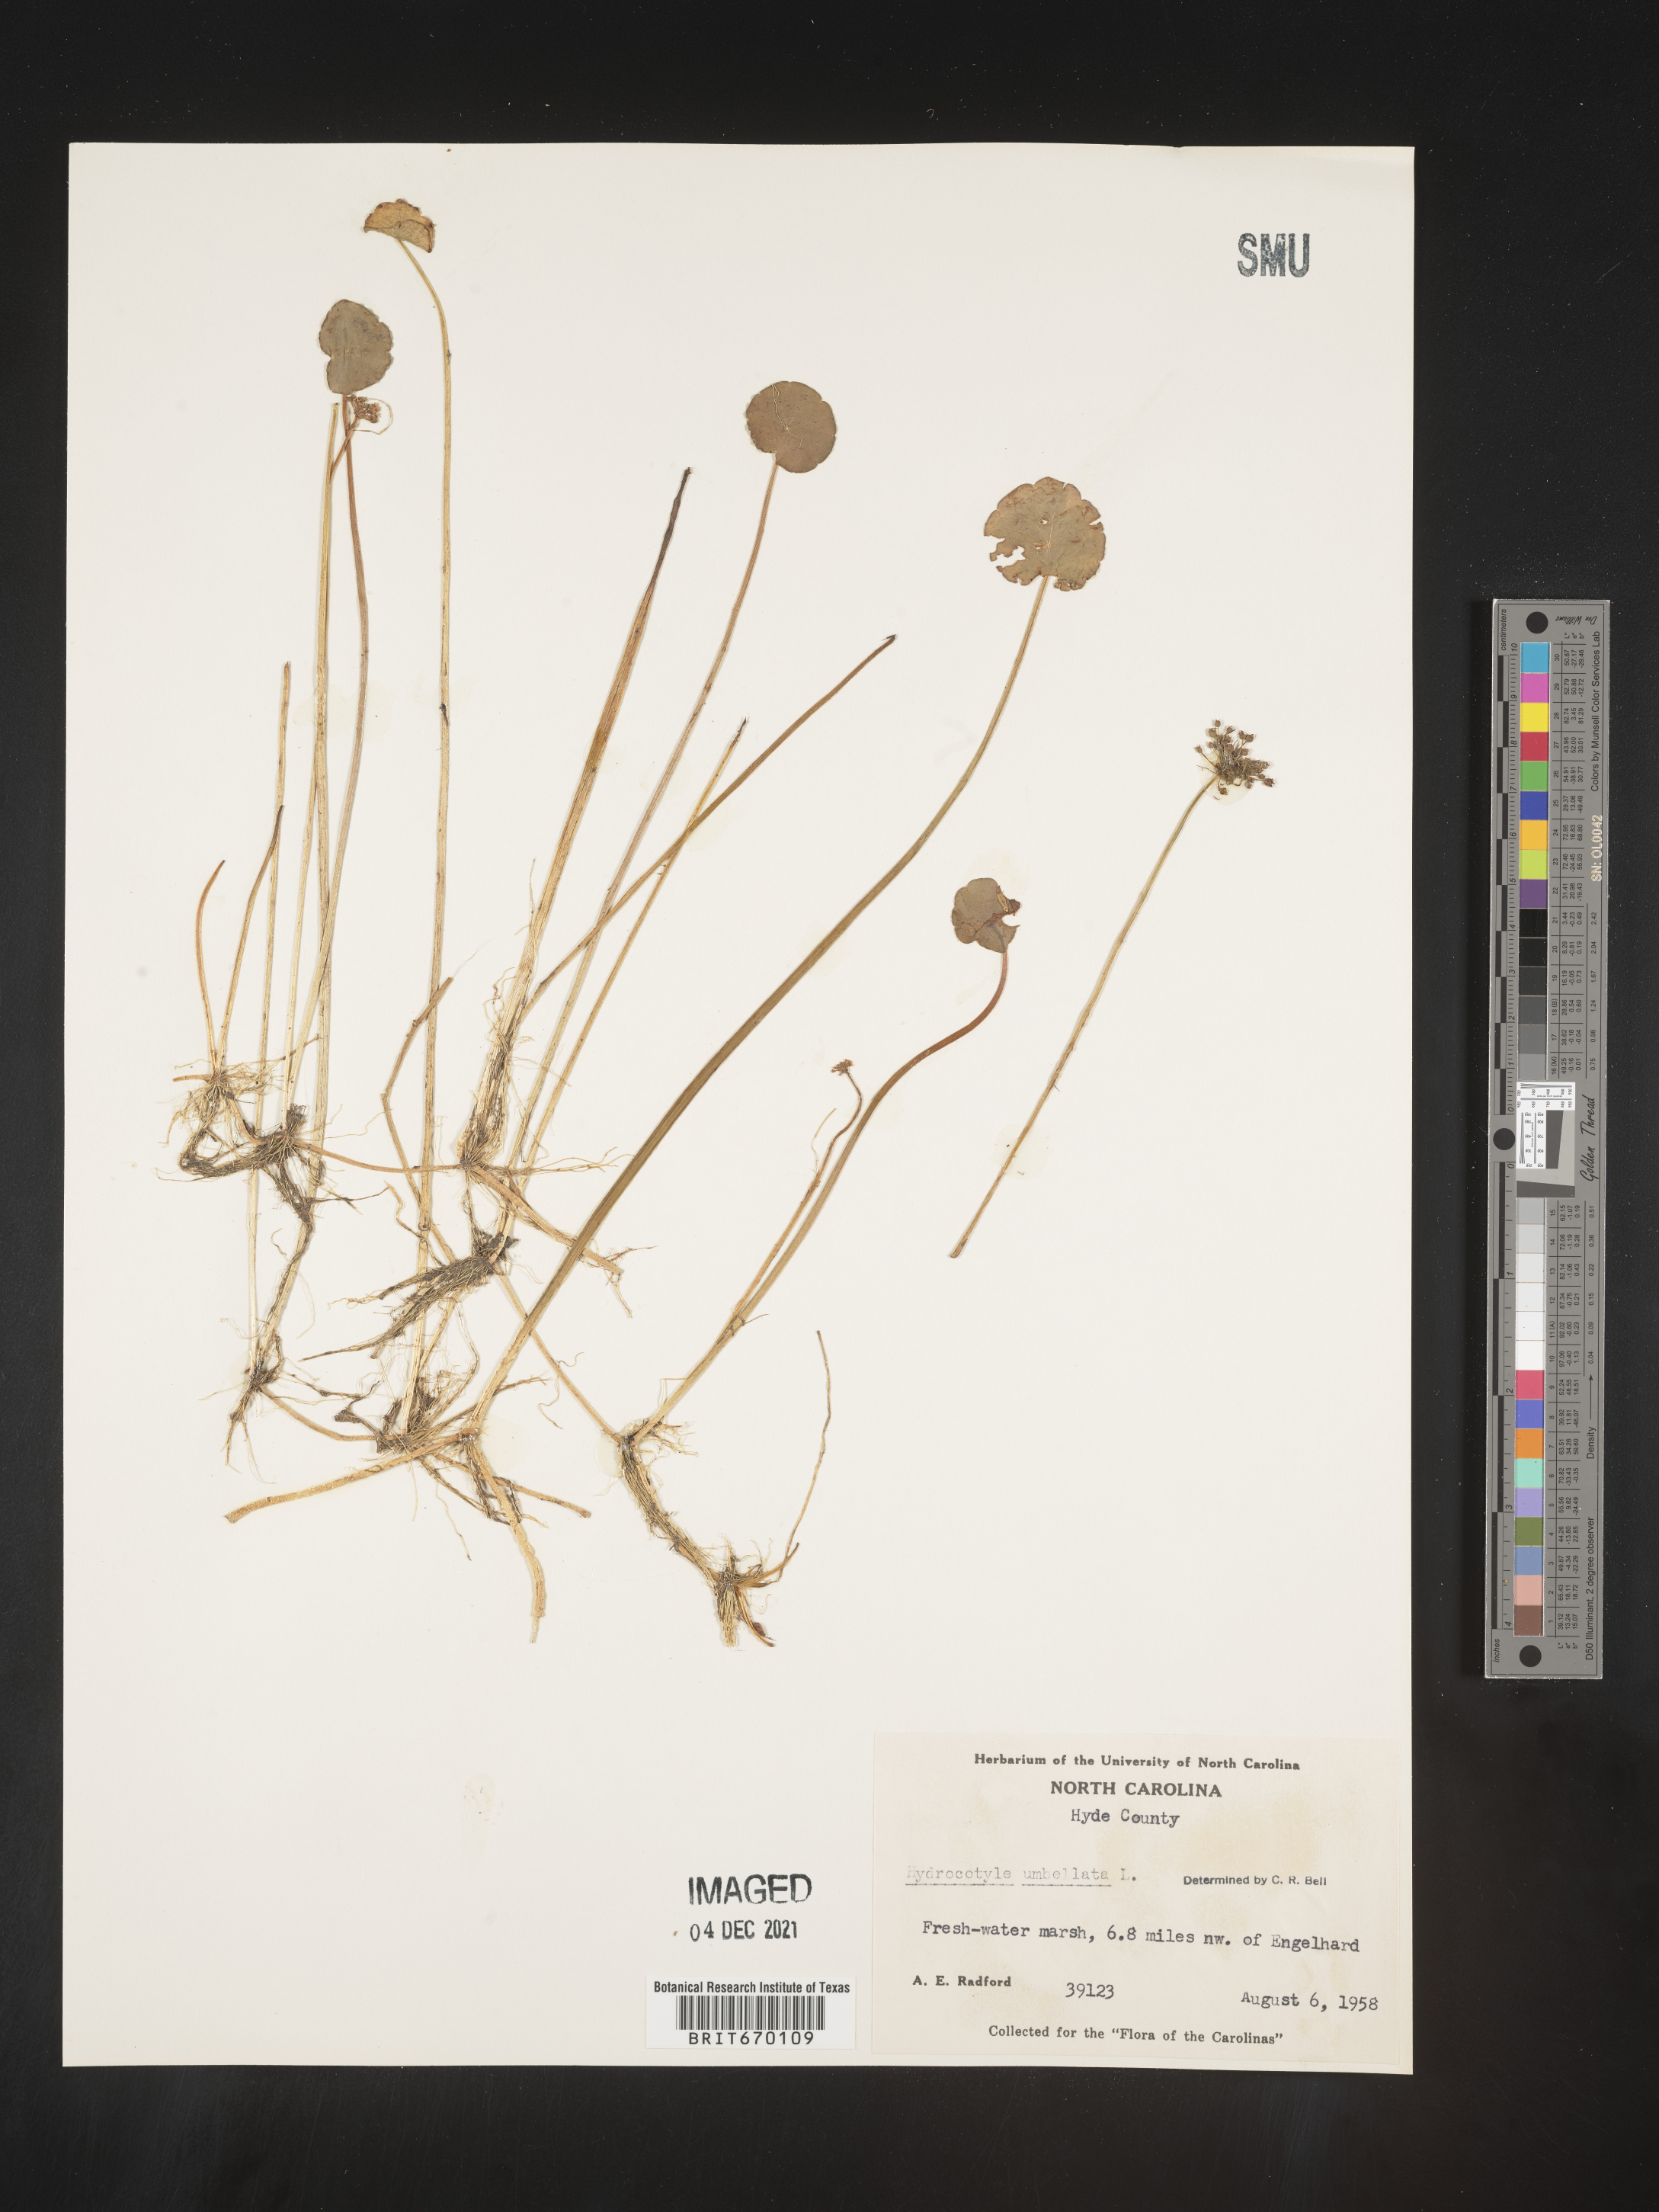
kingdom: Plantae
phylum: Tracheophyta
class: Magnoliopsida
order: Apiales
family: Araliaceae
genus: Hydrocotyle
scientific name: Hydrocotyle umbellata
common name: Water pennywort
